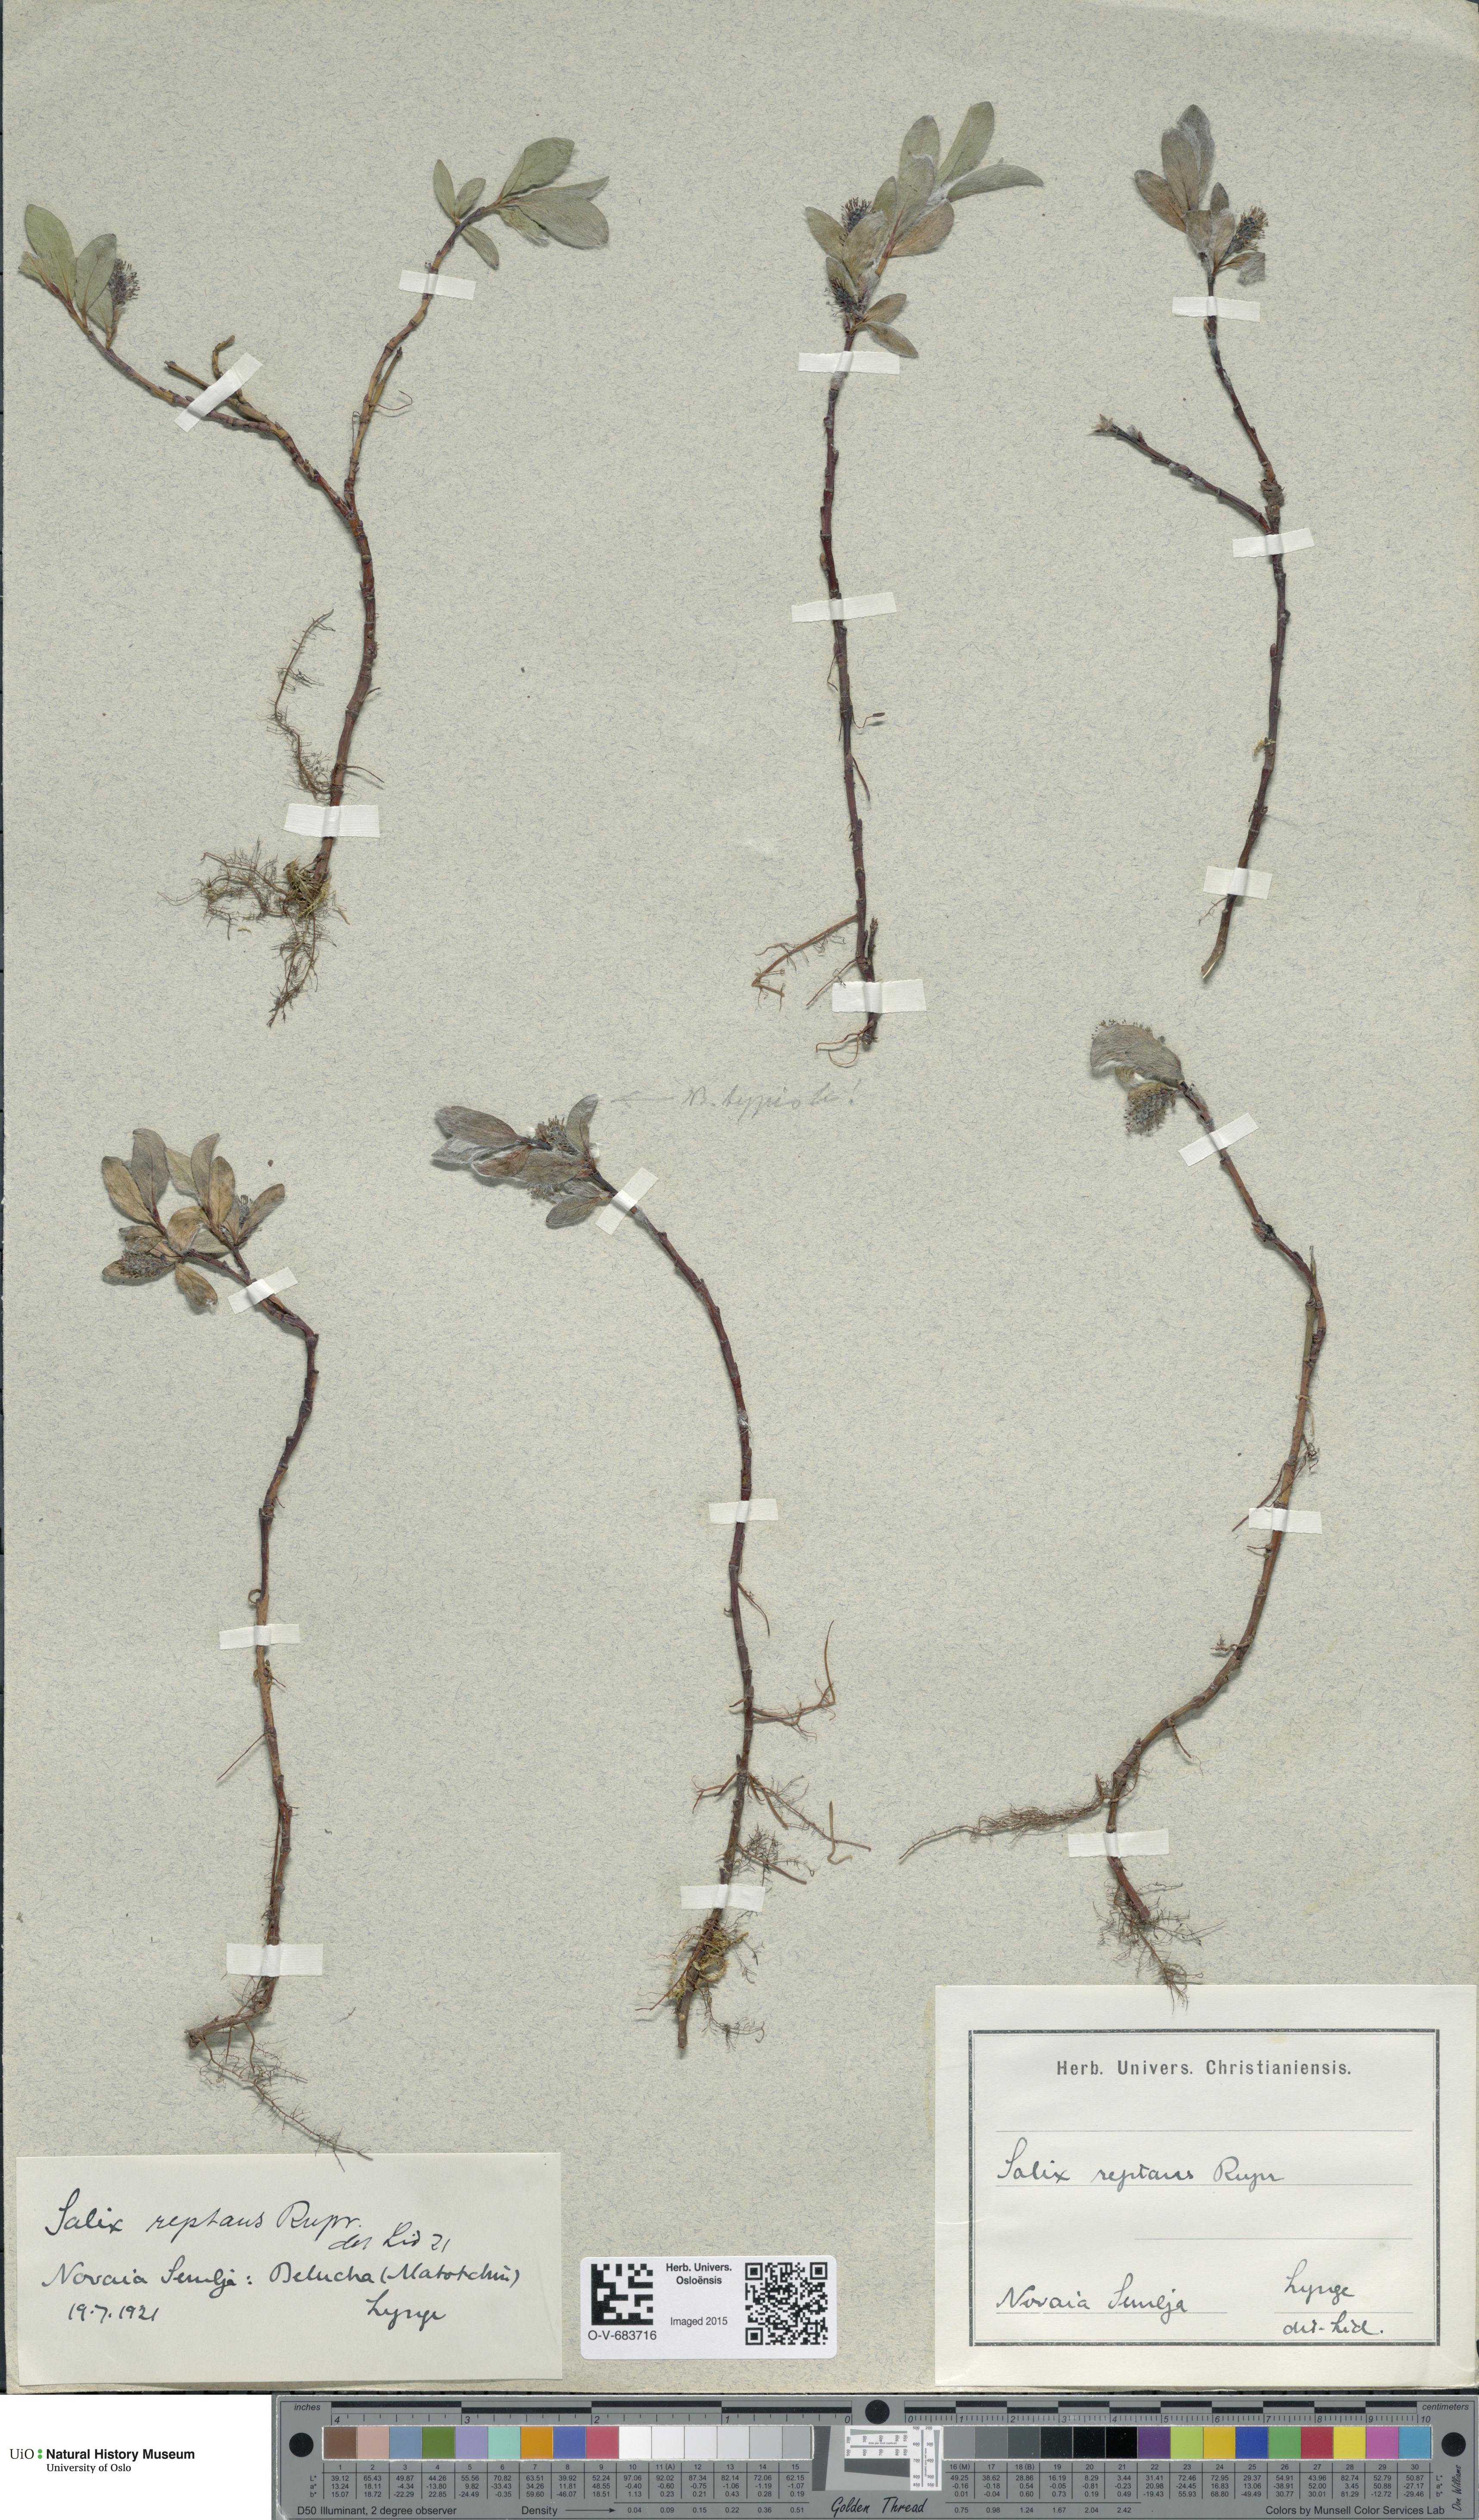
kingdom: Plantae
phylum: Tracheophyta
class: Magnoliopsida
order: Malpighiales
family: Salicaceae
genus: Salix
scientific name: Salix reptans
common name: Arctic creeping willow
